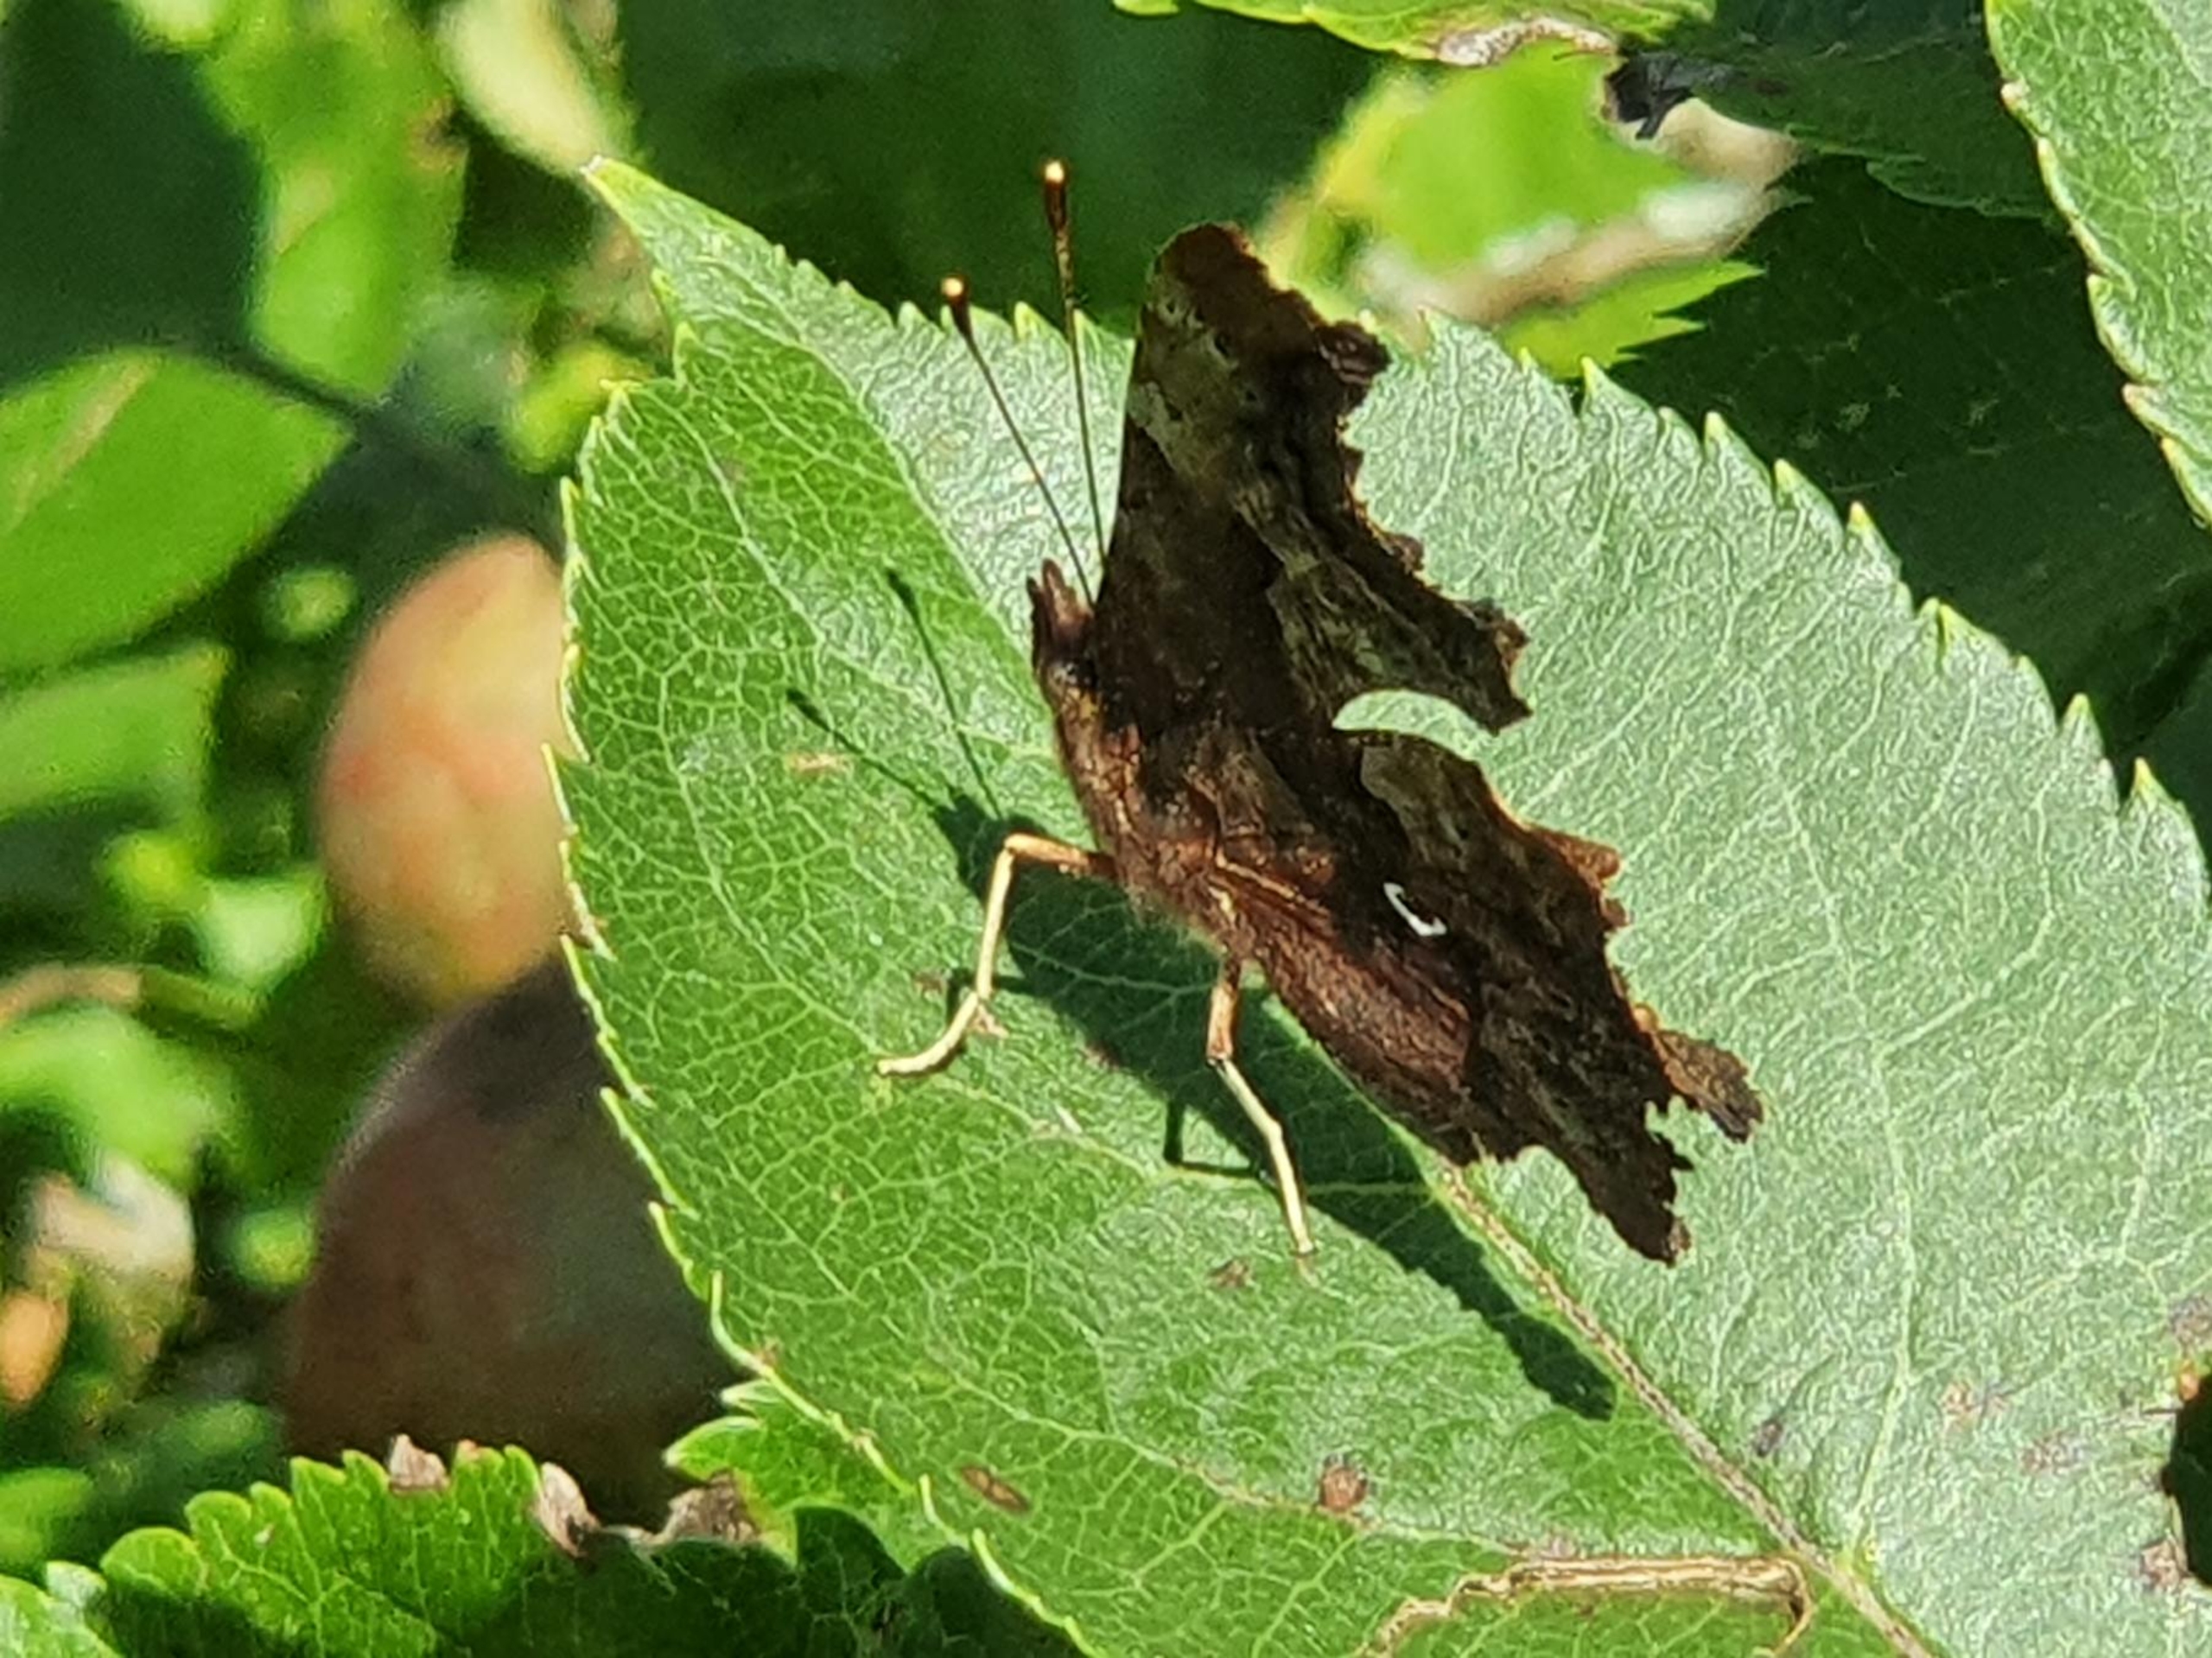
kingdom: Animalia
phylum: Arthropoda
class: Insecta
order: Lepidoptera
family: Nymphalidae
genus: Polygonia
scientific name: Polygonia c-album
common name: Det hvide C
